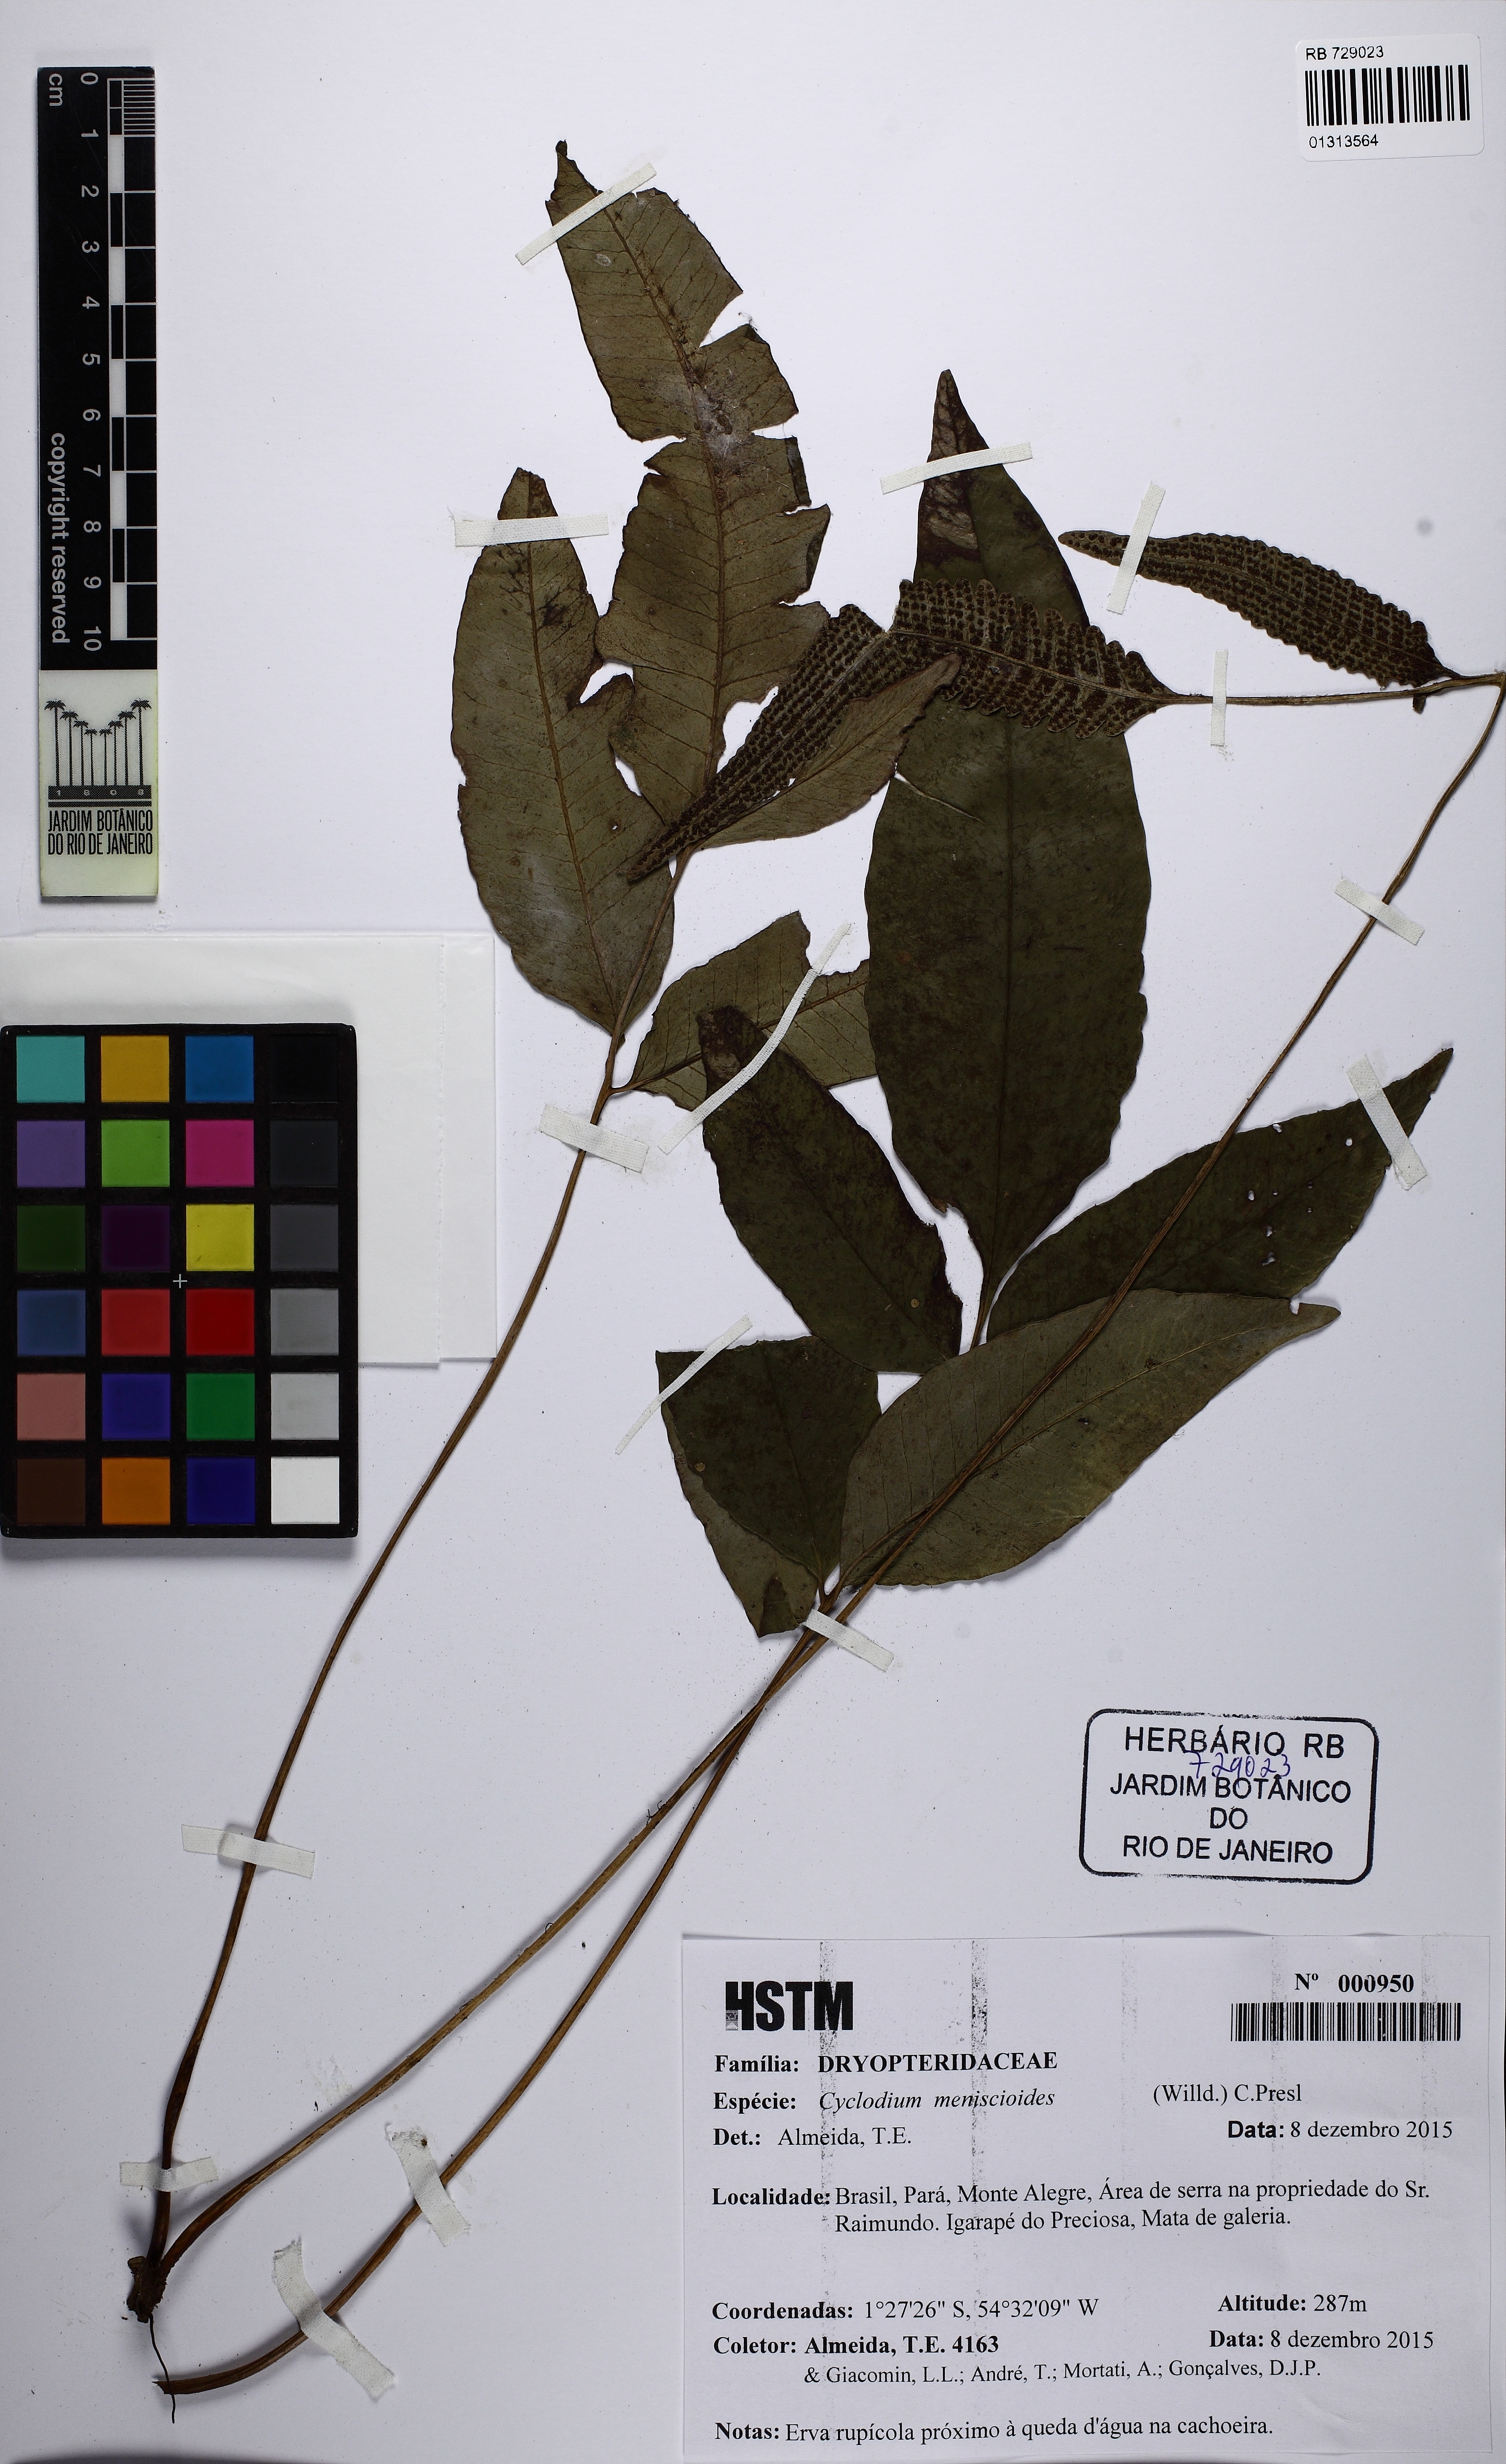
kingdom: Plantae
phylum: Tracheophyta
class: Polypodiopsida
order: Polypodiales
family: Dryopteridaceae
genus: Cyclodium
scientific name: Cyclodium meniscioides
